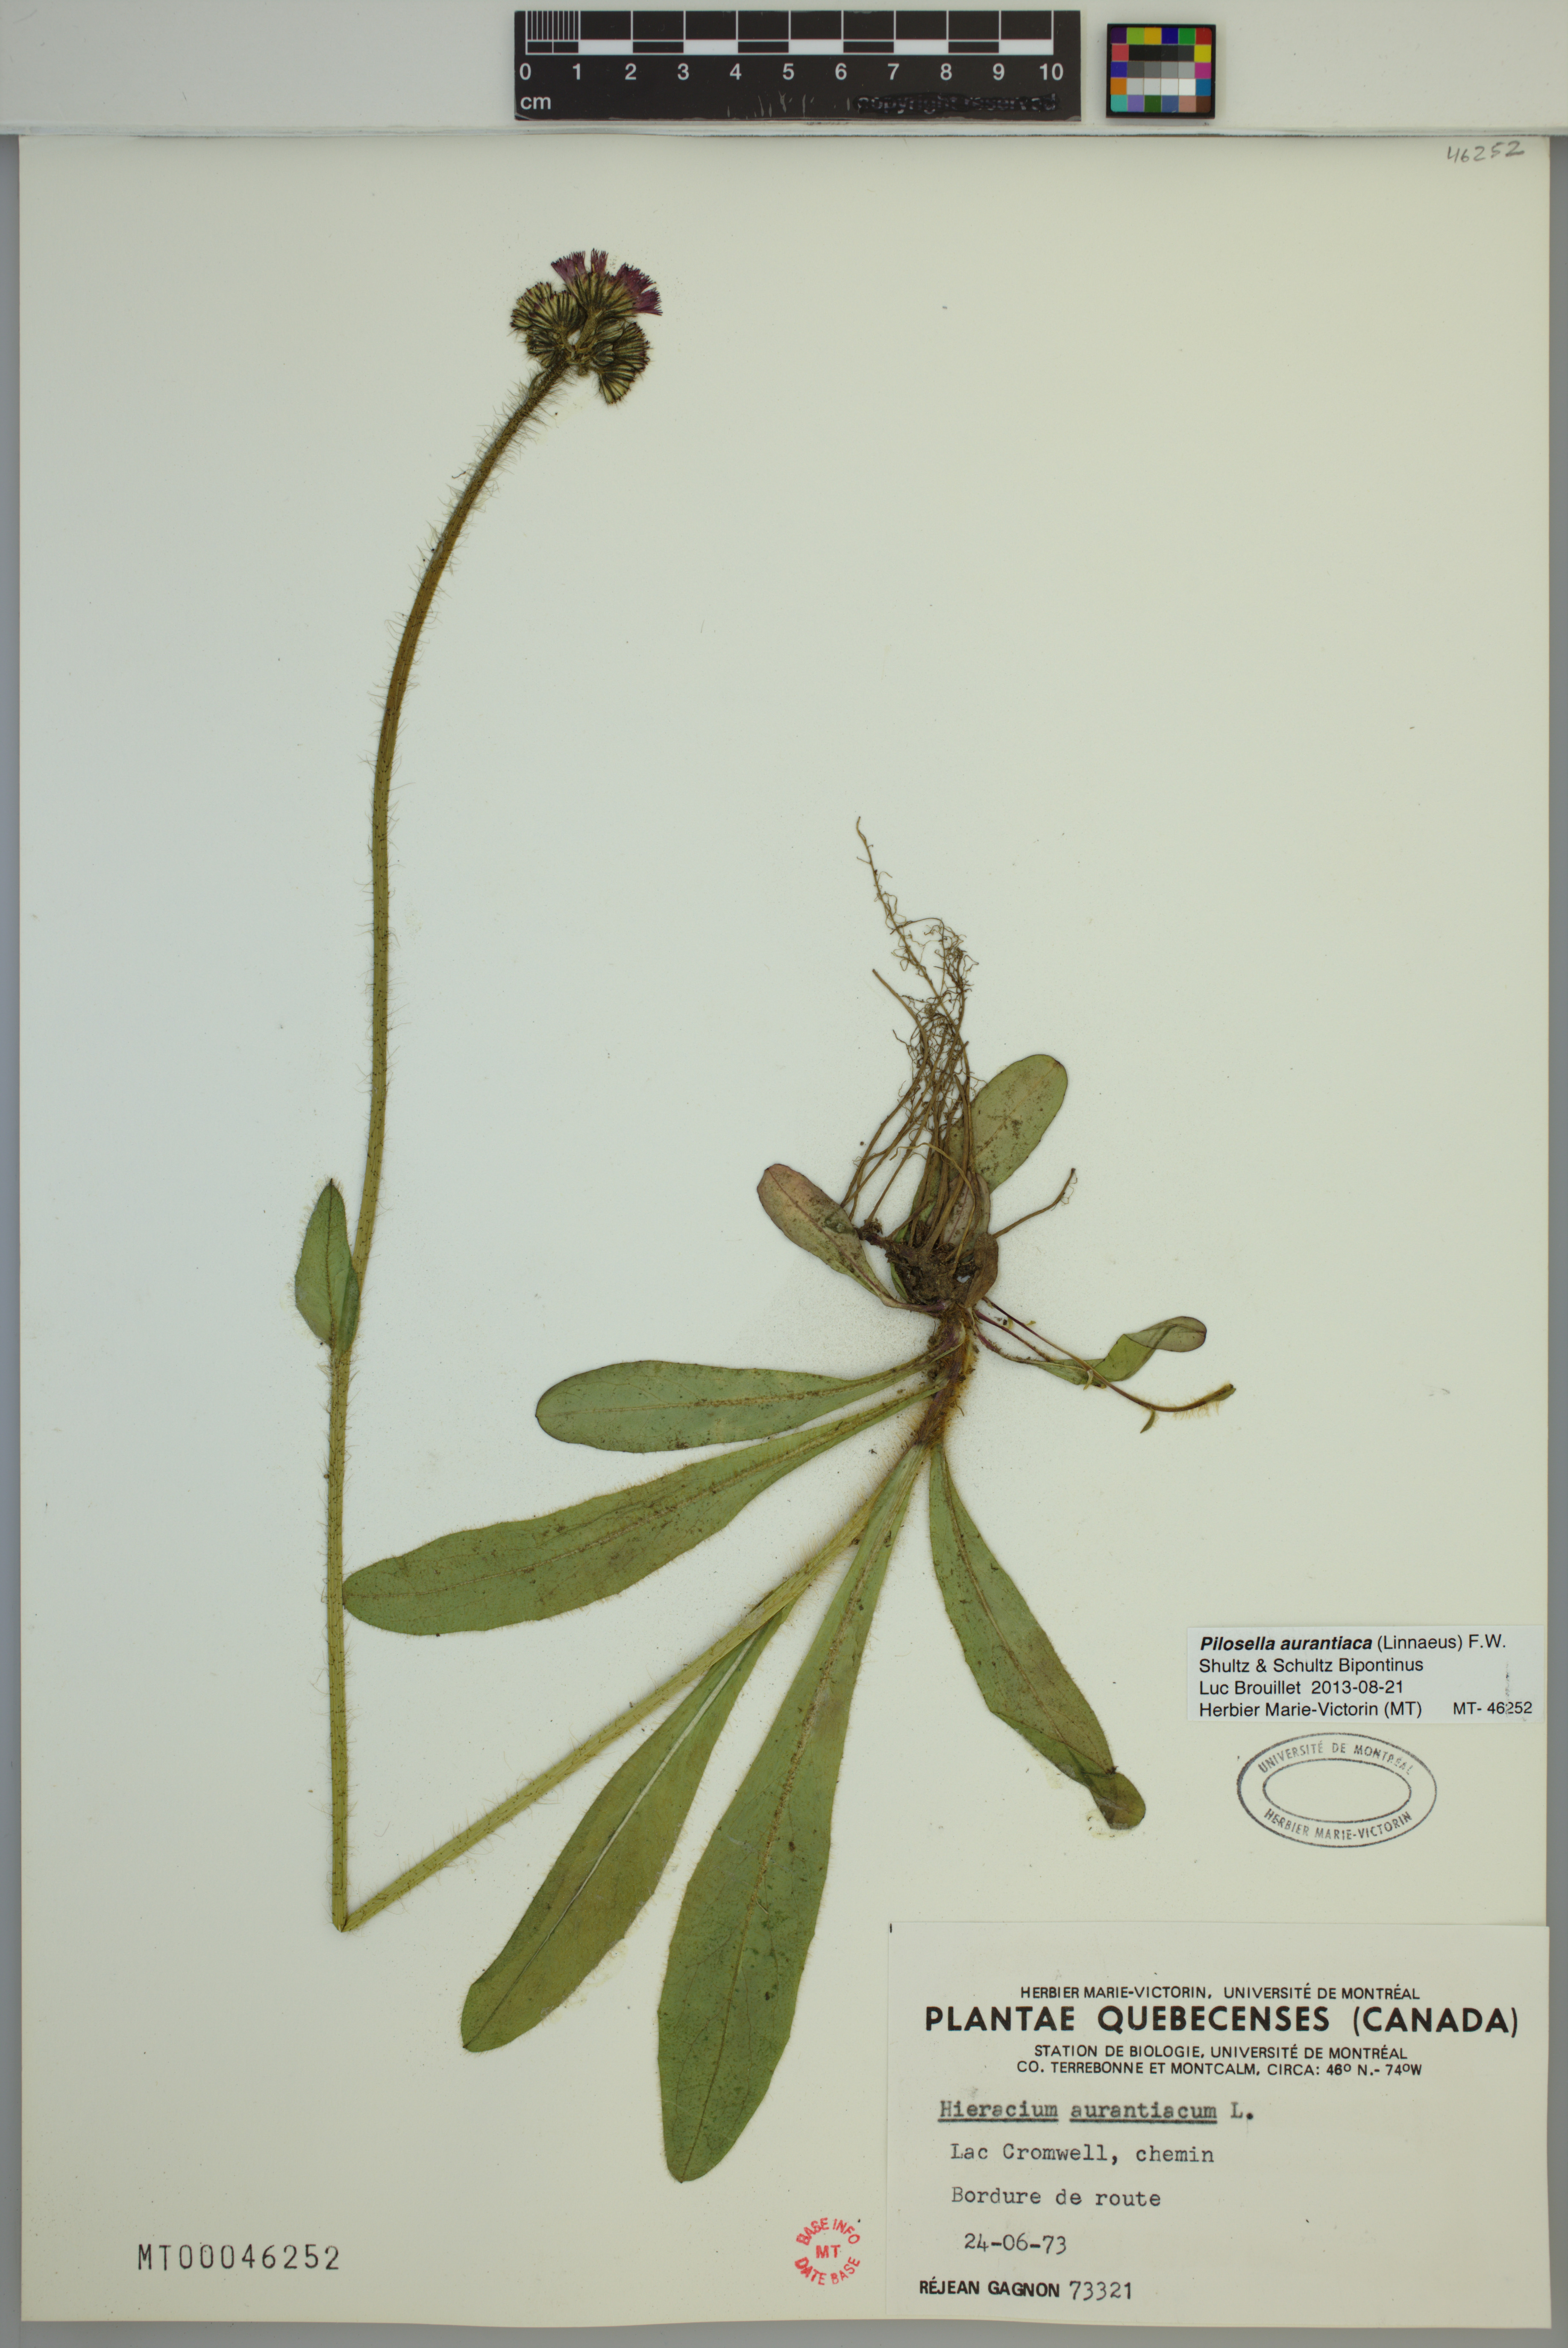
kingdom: Plantae
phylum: Tracheophyta
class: Magnoliopsida
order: Asterales
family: Asteraceae
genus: Pilosella
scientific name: Pilosella aurantiaca
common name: Fox-and-cubs
